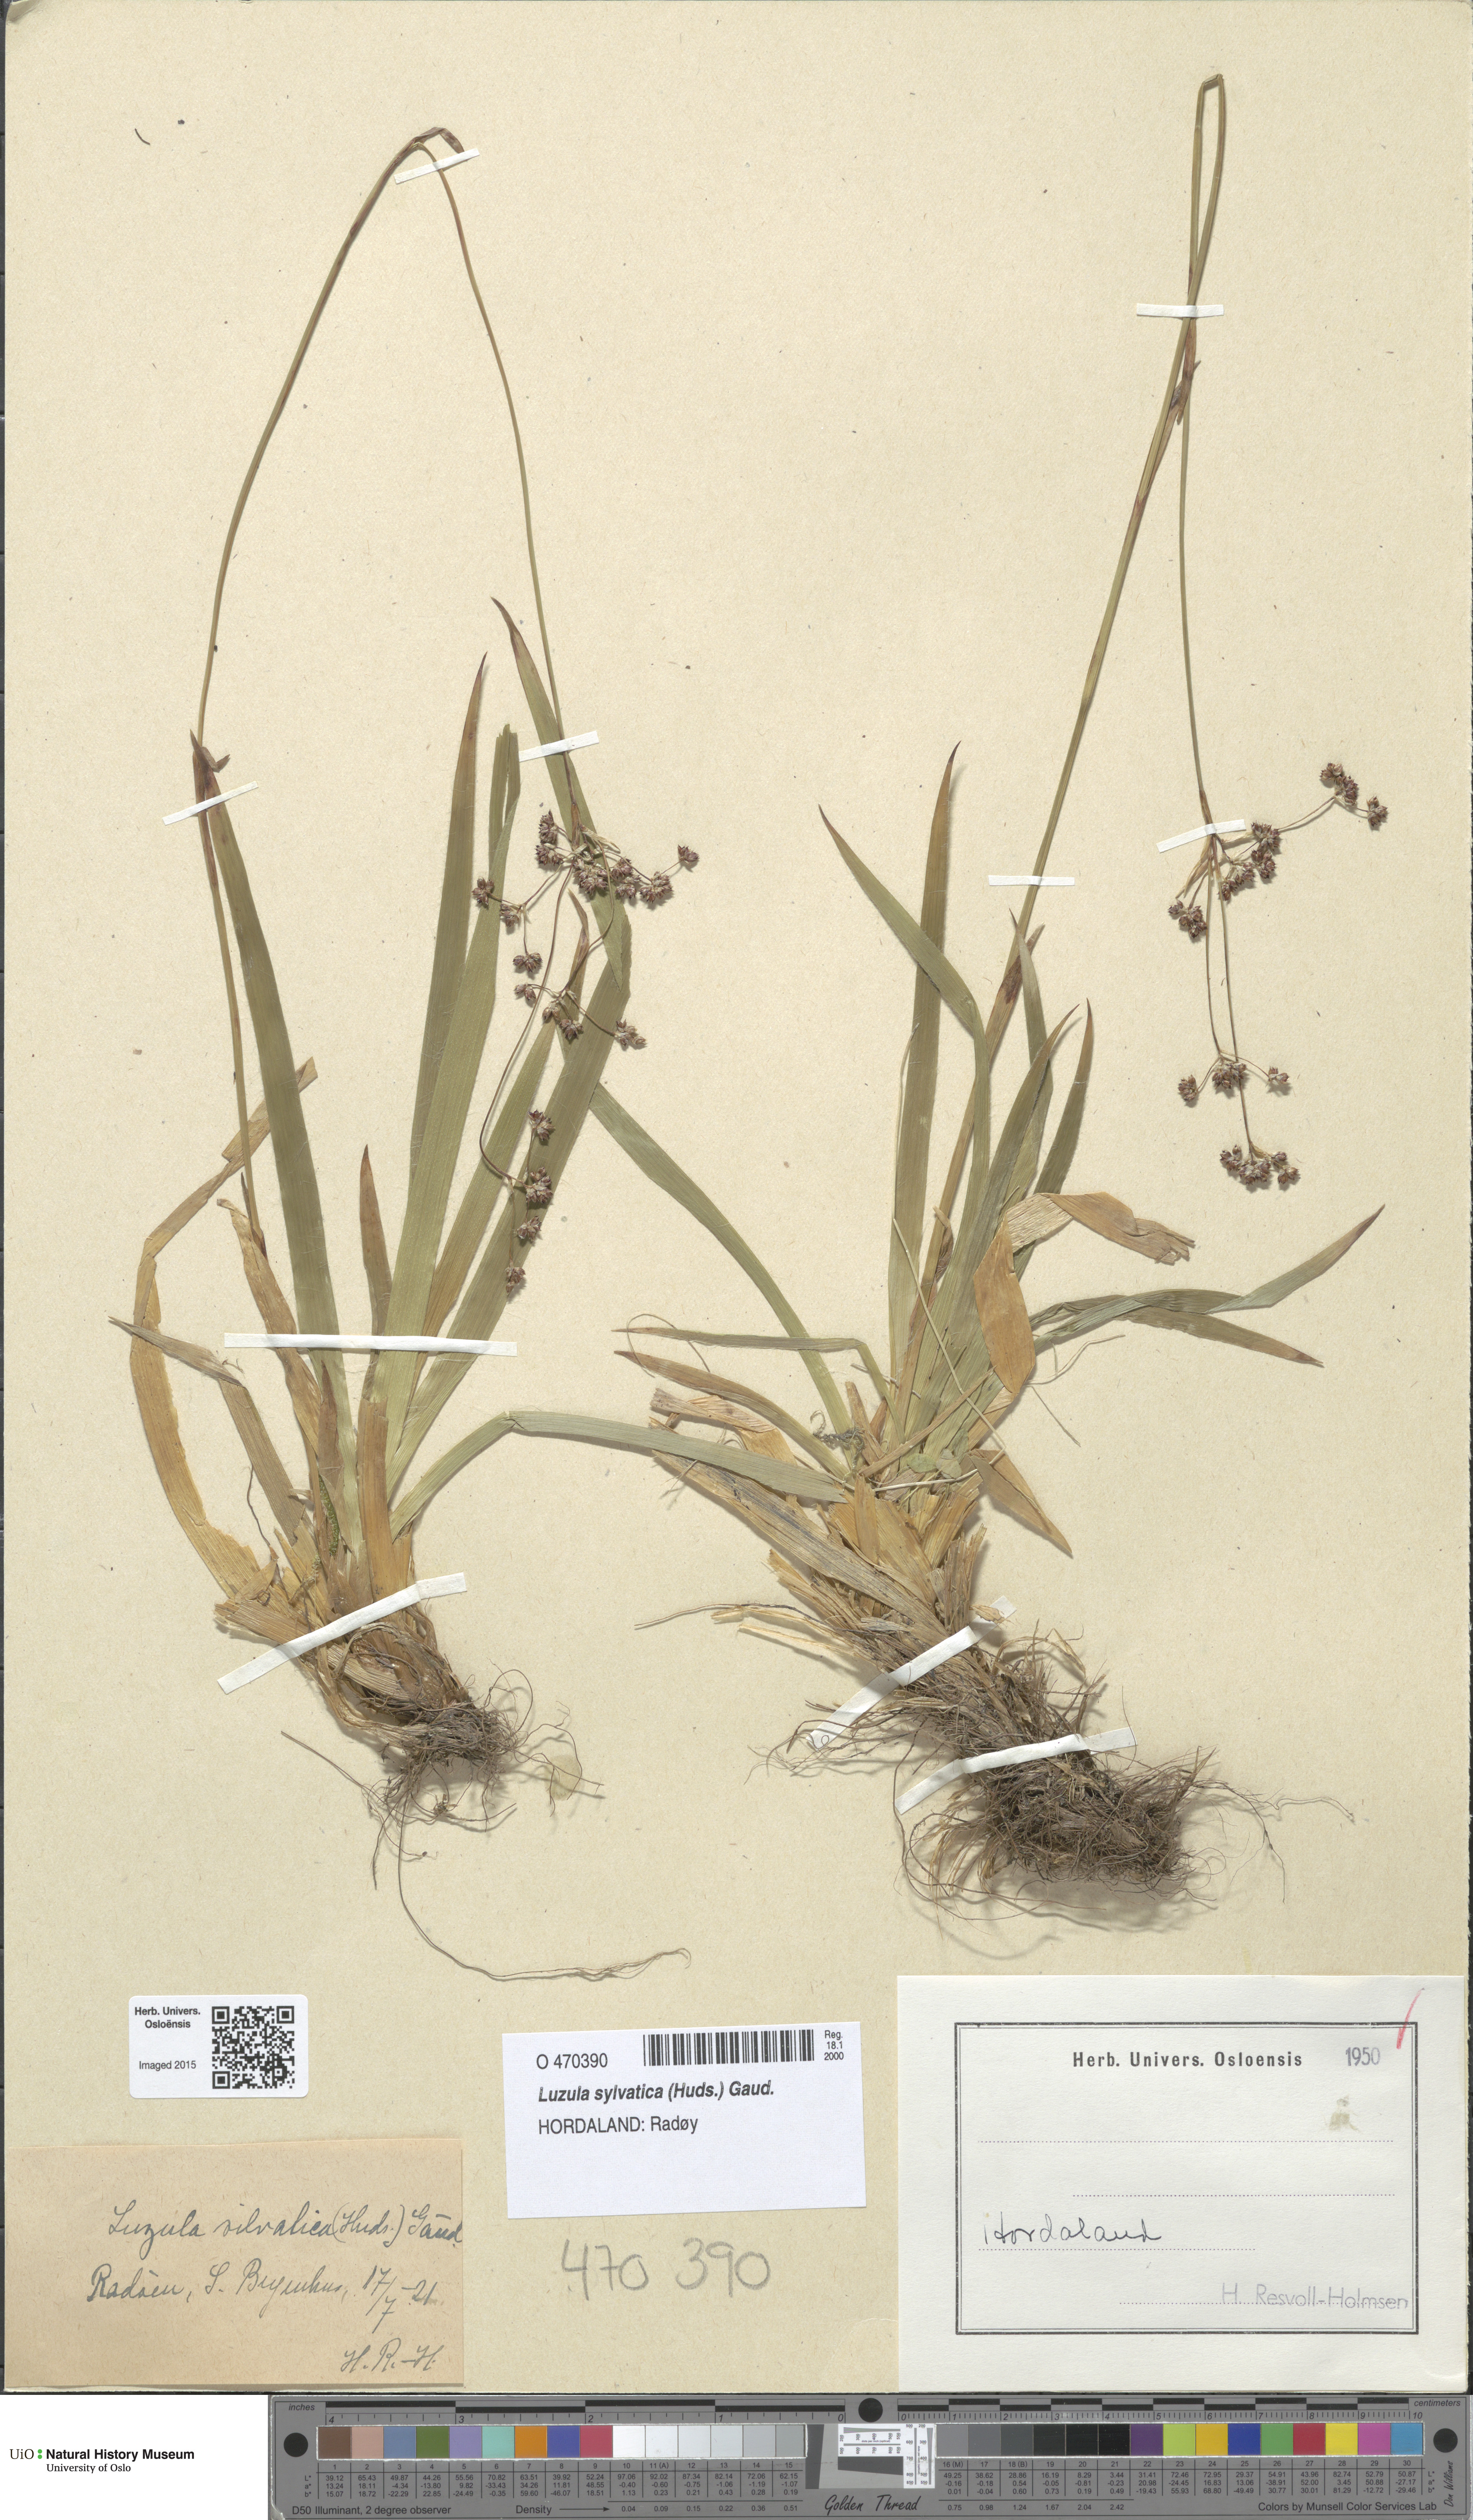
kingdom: Plantae
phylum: Tracheophyta
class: Liliopsida
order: Poales
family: Juncaceae
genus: Luzula
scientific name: Luzula sylvatica
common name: Great wood-rush
